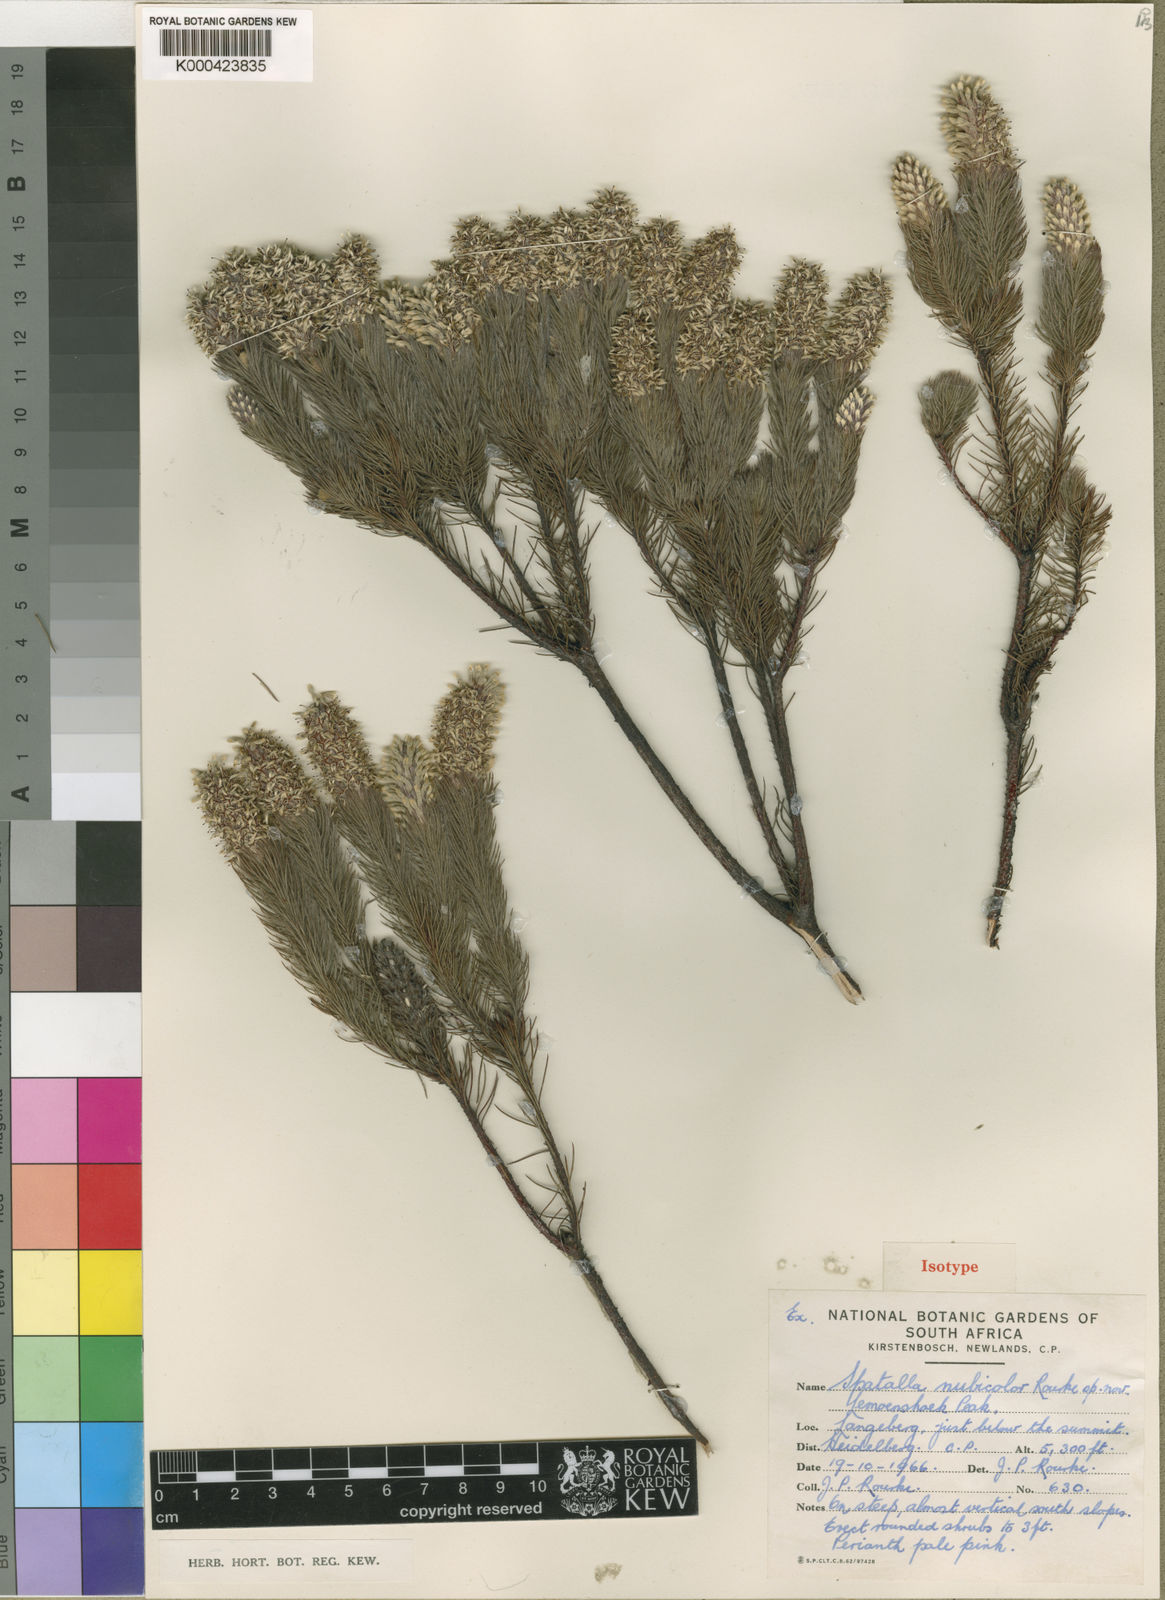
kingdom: Plantae
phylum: Tracheophyta
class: Magnoliopsida
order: Proteales
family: Proteaceae
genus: Spatalla
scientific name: Spatalla nubicola
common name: Medusa spoon
